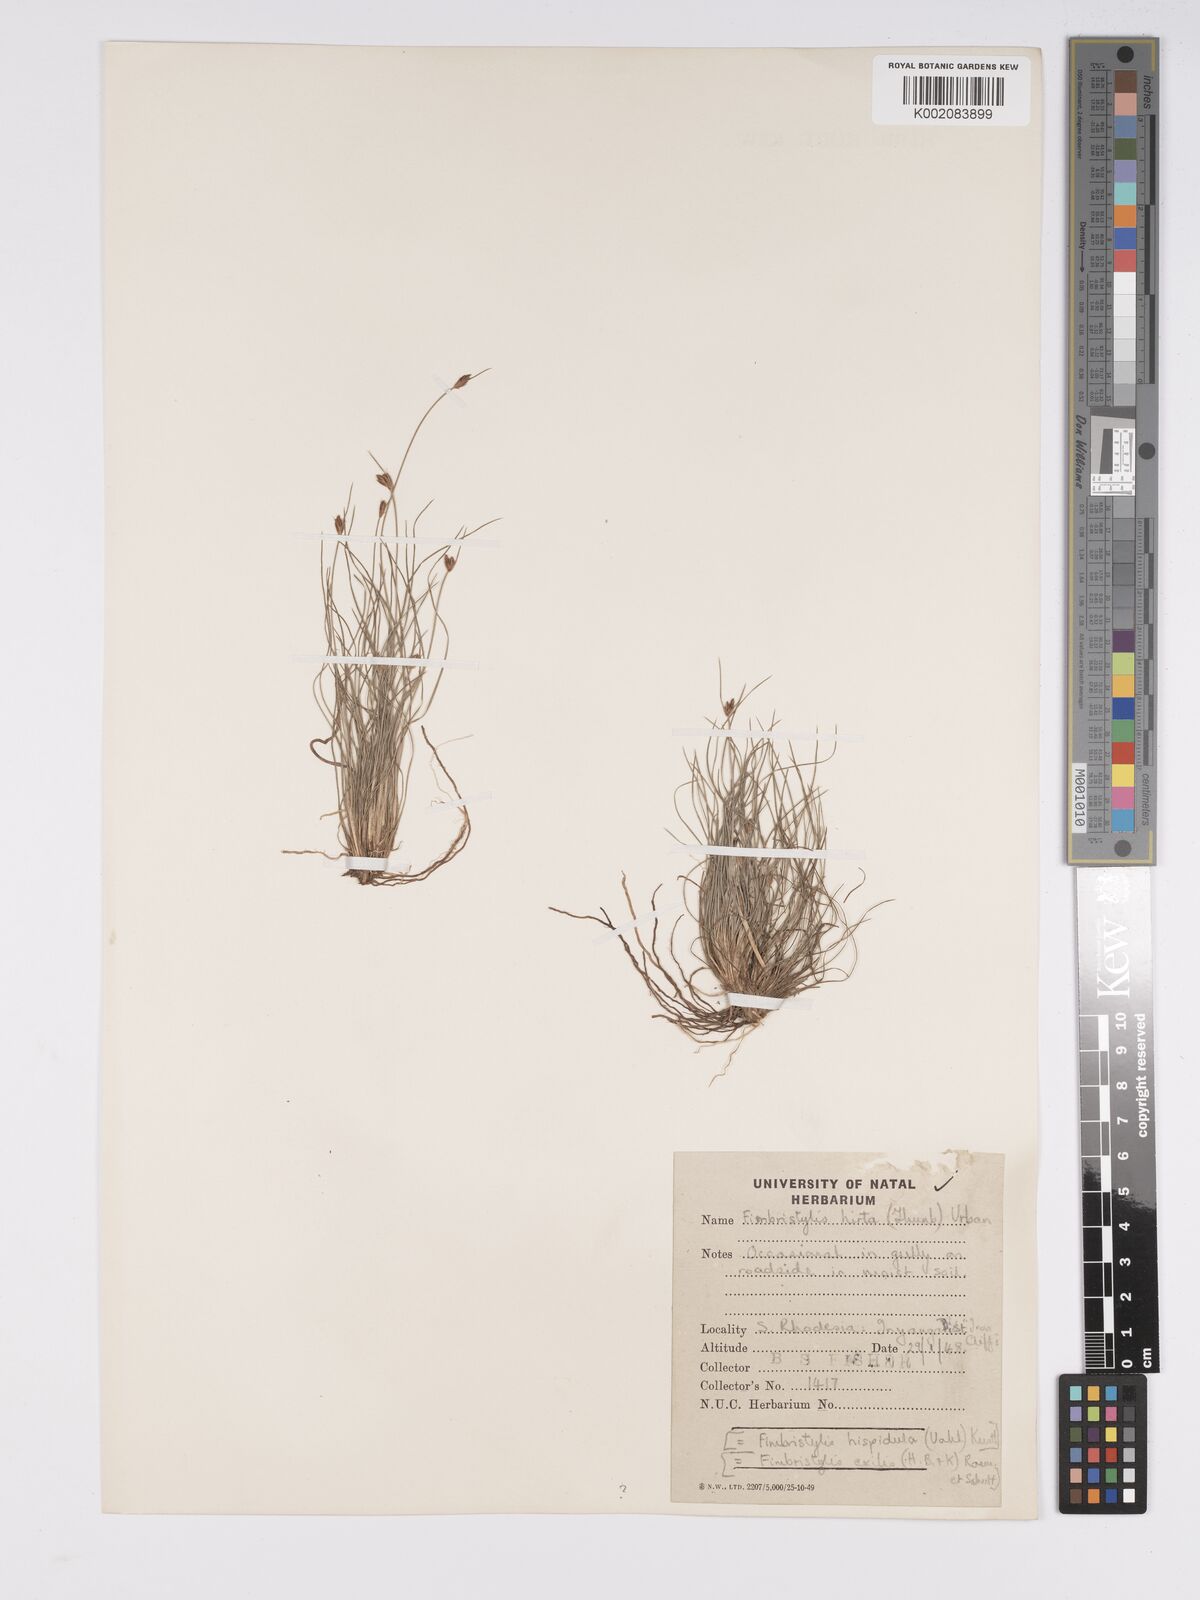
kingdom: Plantae
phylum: Tracheophyta
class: Liliopsida
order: Poales
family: Cyperaceae
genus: Bulbostylis
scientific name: Bulbostylis hispidula
